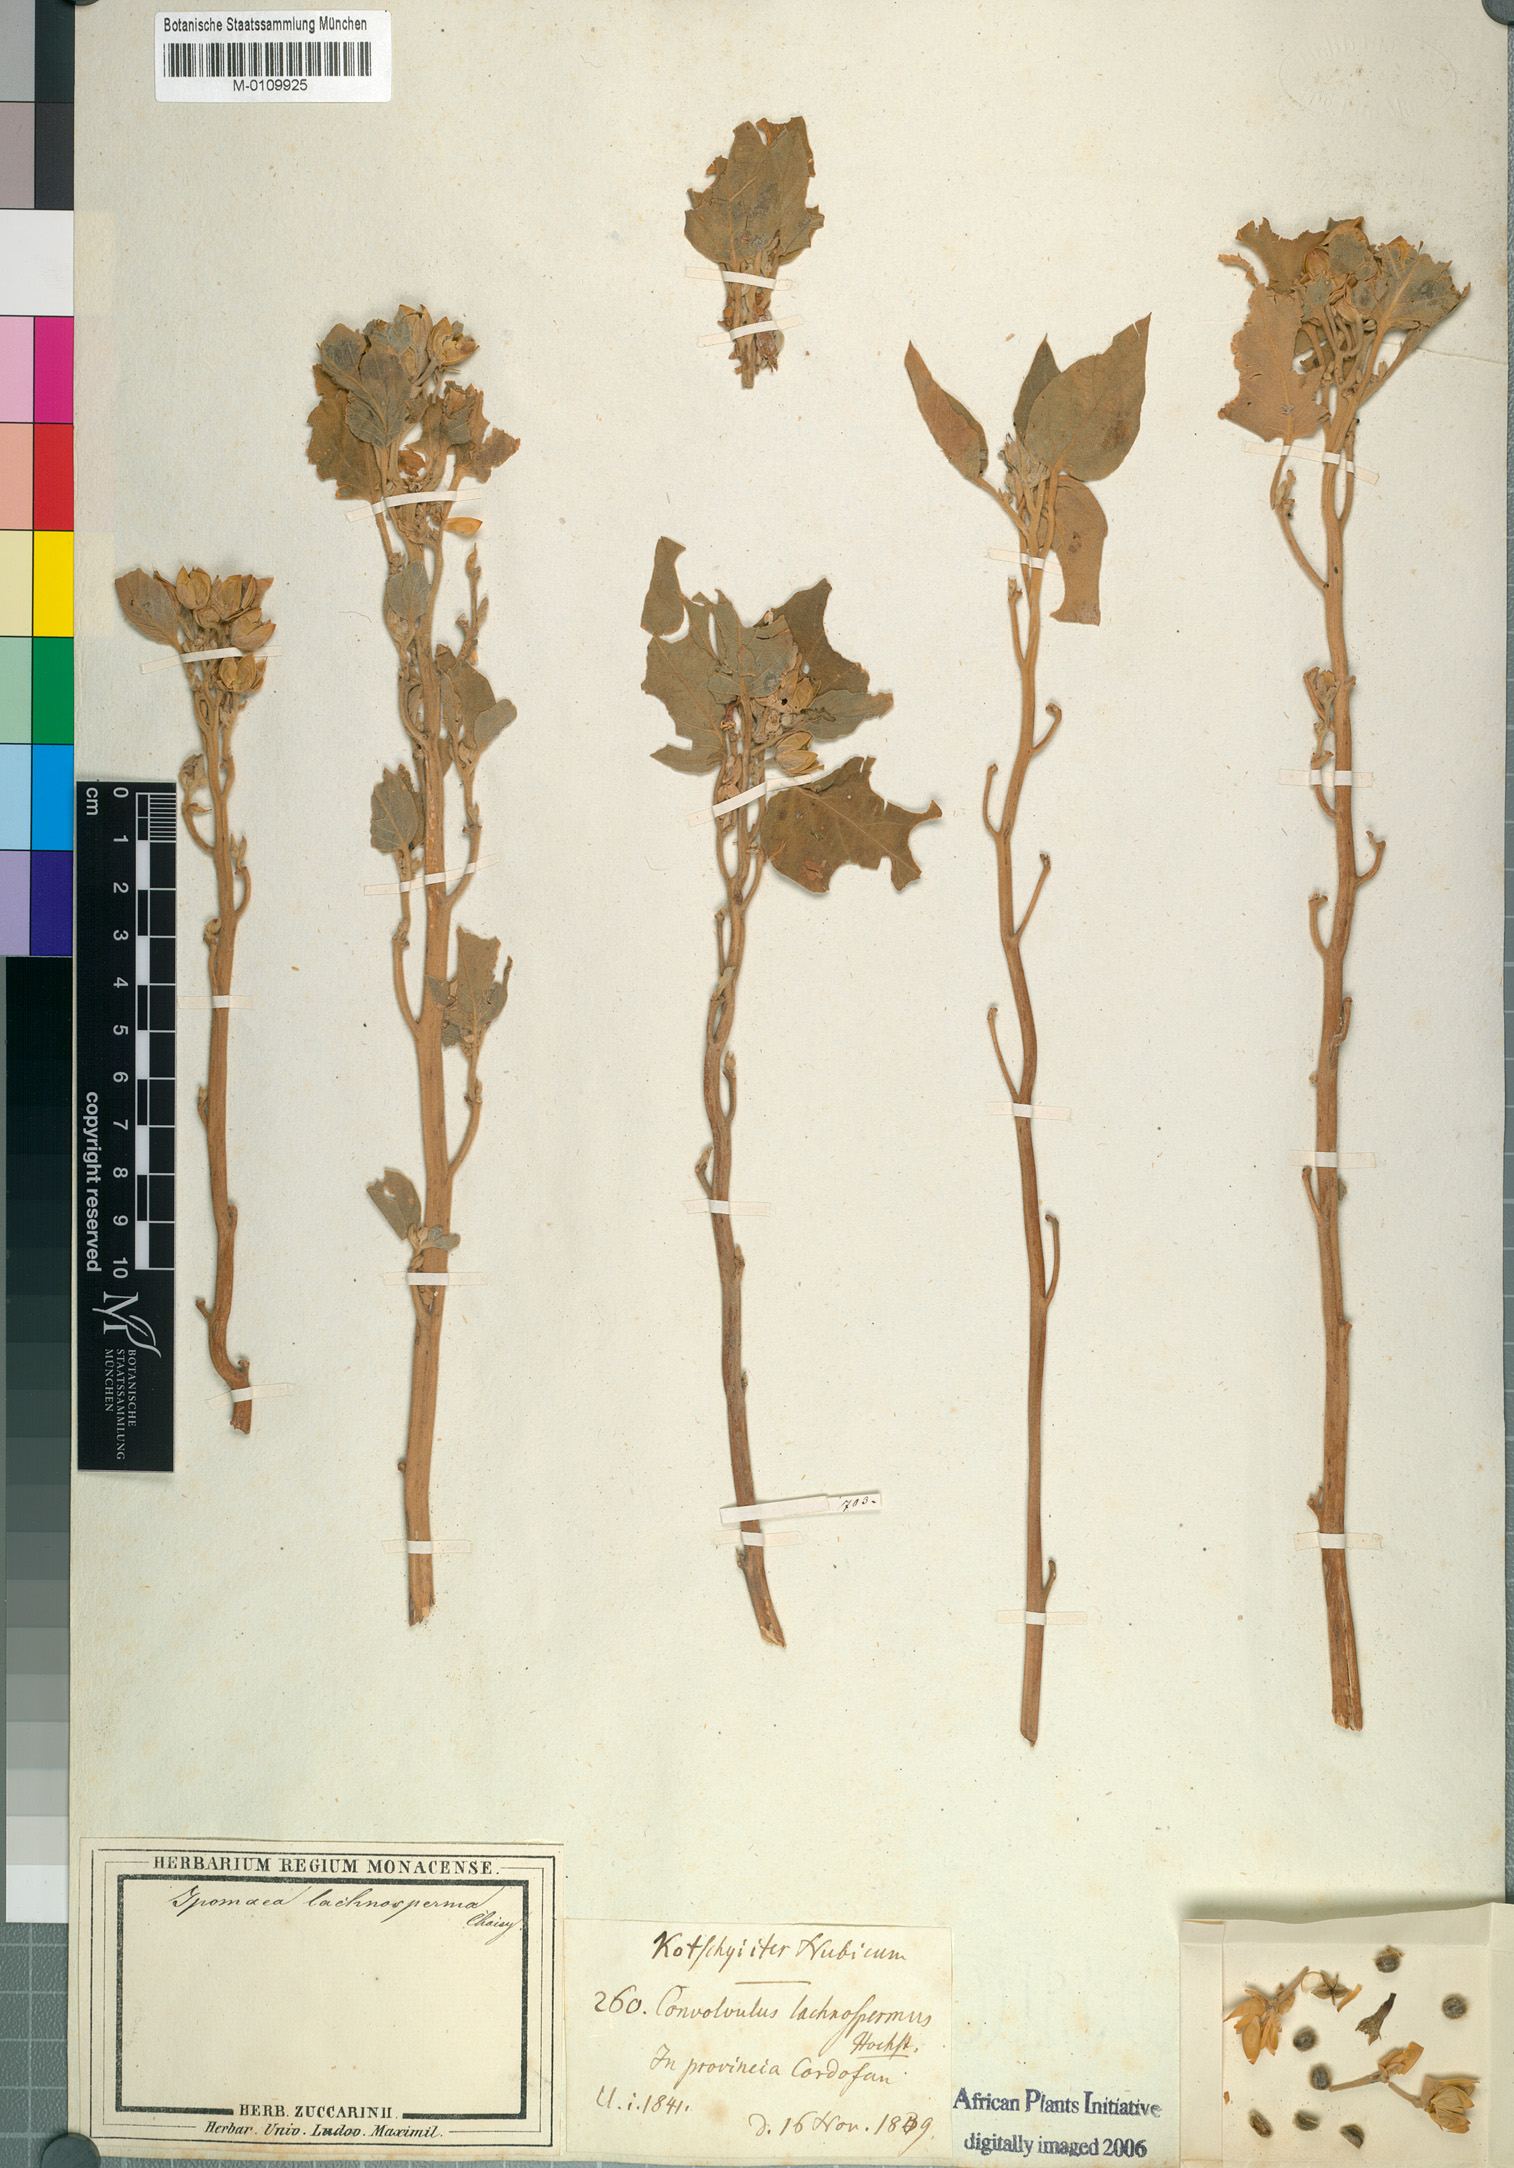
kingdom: Plantae
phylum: Tracheophyta
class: Magnoliopsida
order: Solanales
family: Convolvulaceae
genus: Astripomoea
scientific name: Astripomoea lachnosperma
